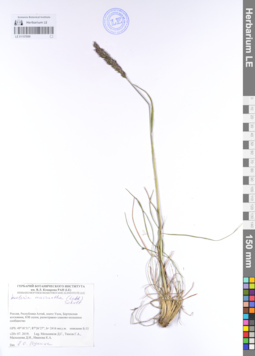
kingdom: Plantae
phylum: Tracheophyta
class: Liliopsida
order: Poales
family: Poaceae
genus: Koeleria
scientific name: Koeleria macrantha
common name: Crested hair-grass
